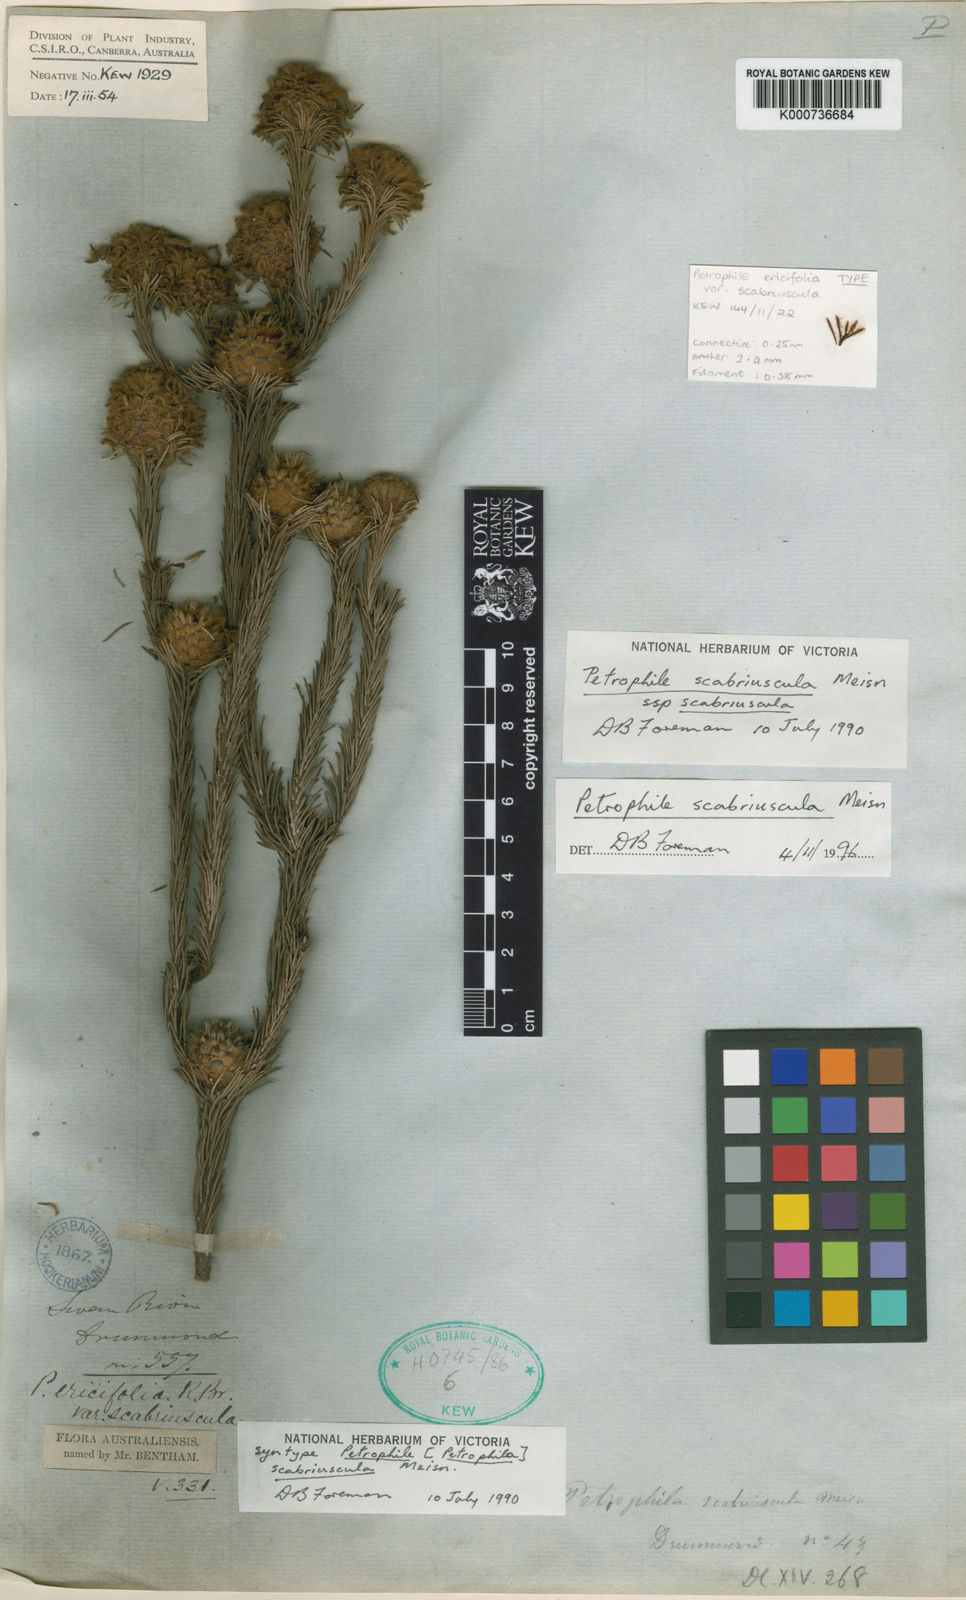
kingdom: Plantae
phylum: Tracheophyta
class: Magnoliopsida
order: Proteales
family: Proteaceae
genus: Petrophile
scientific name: Petrophile scabriuscula
